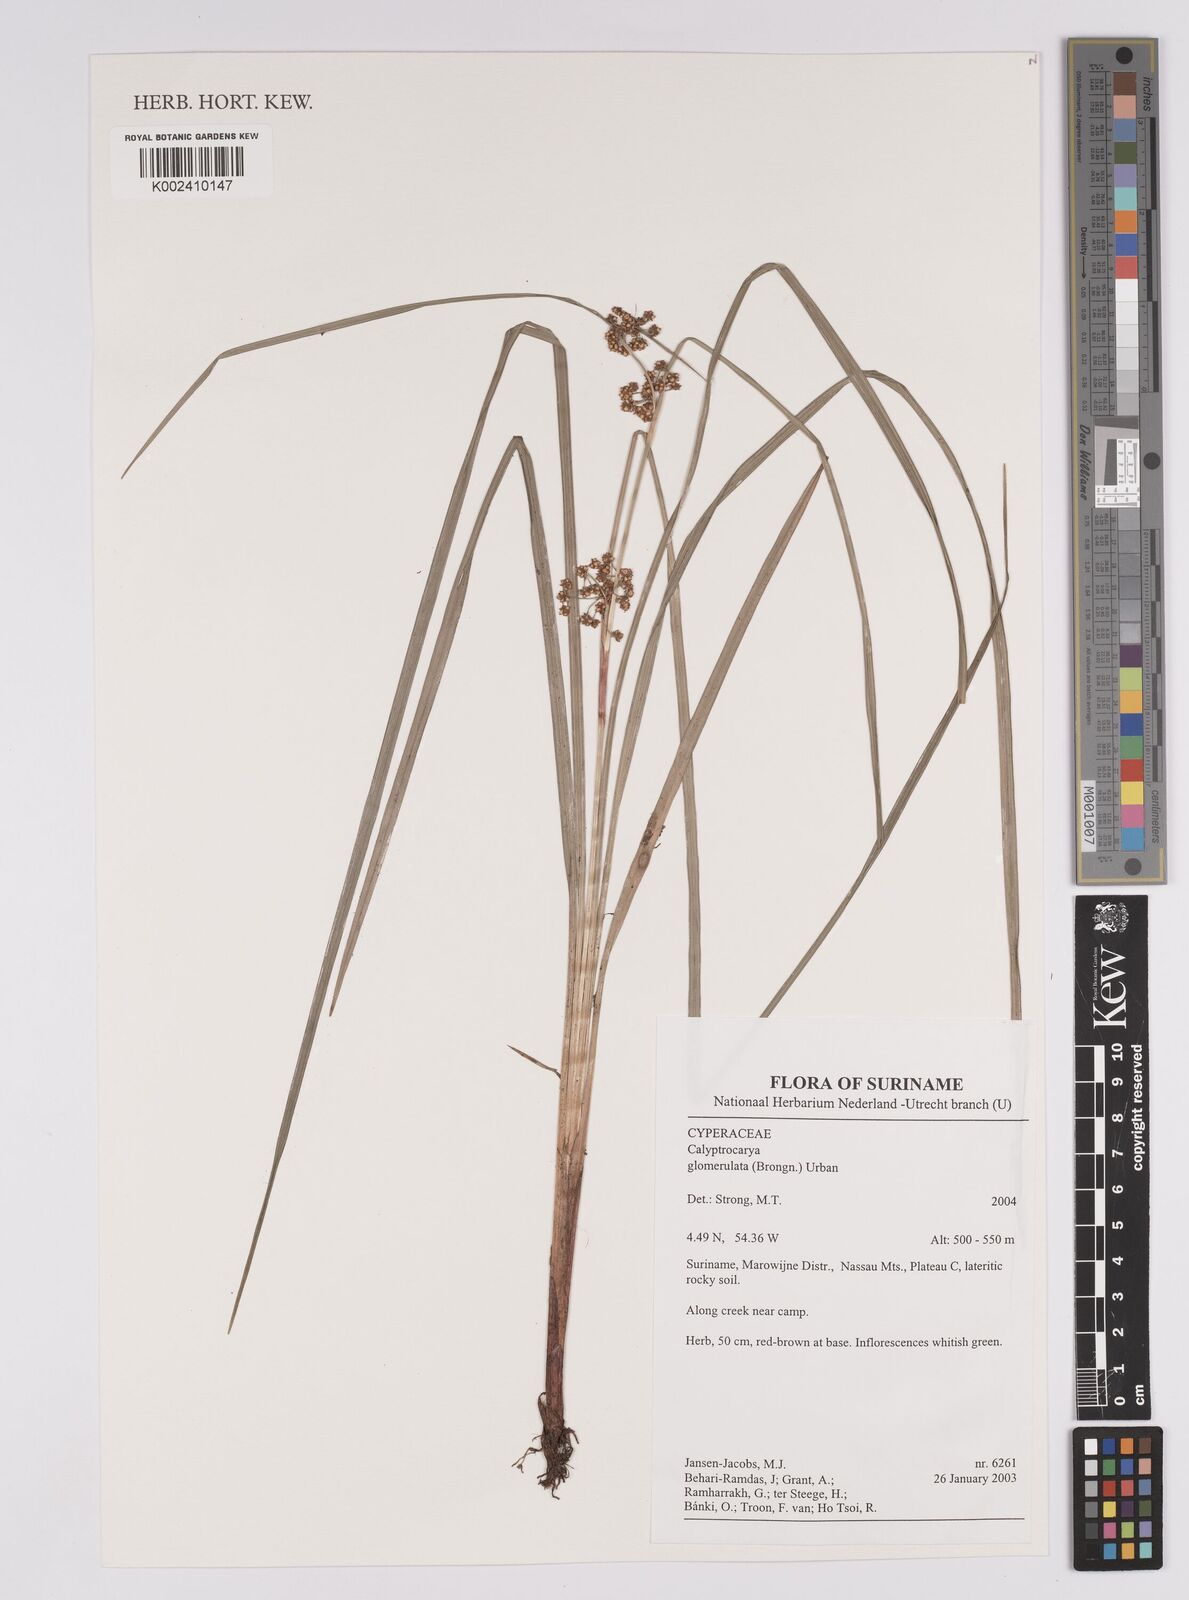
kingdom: Plantae
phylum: Tracheophyta
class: Liliopsida
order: Poales
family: Cyperaceae
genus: Calyptrocarya
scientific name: Calyptrocarya glomerulata
